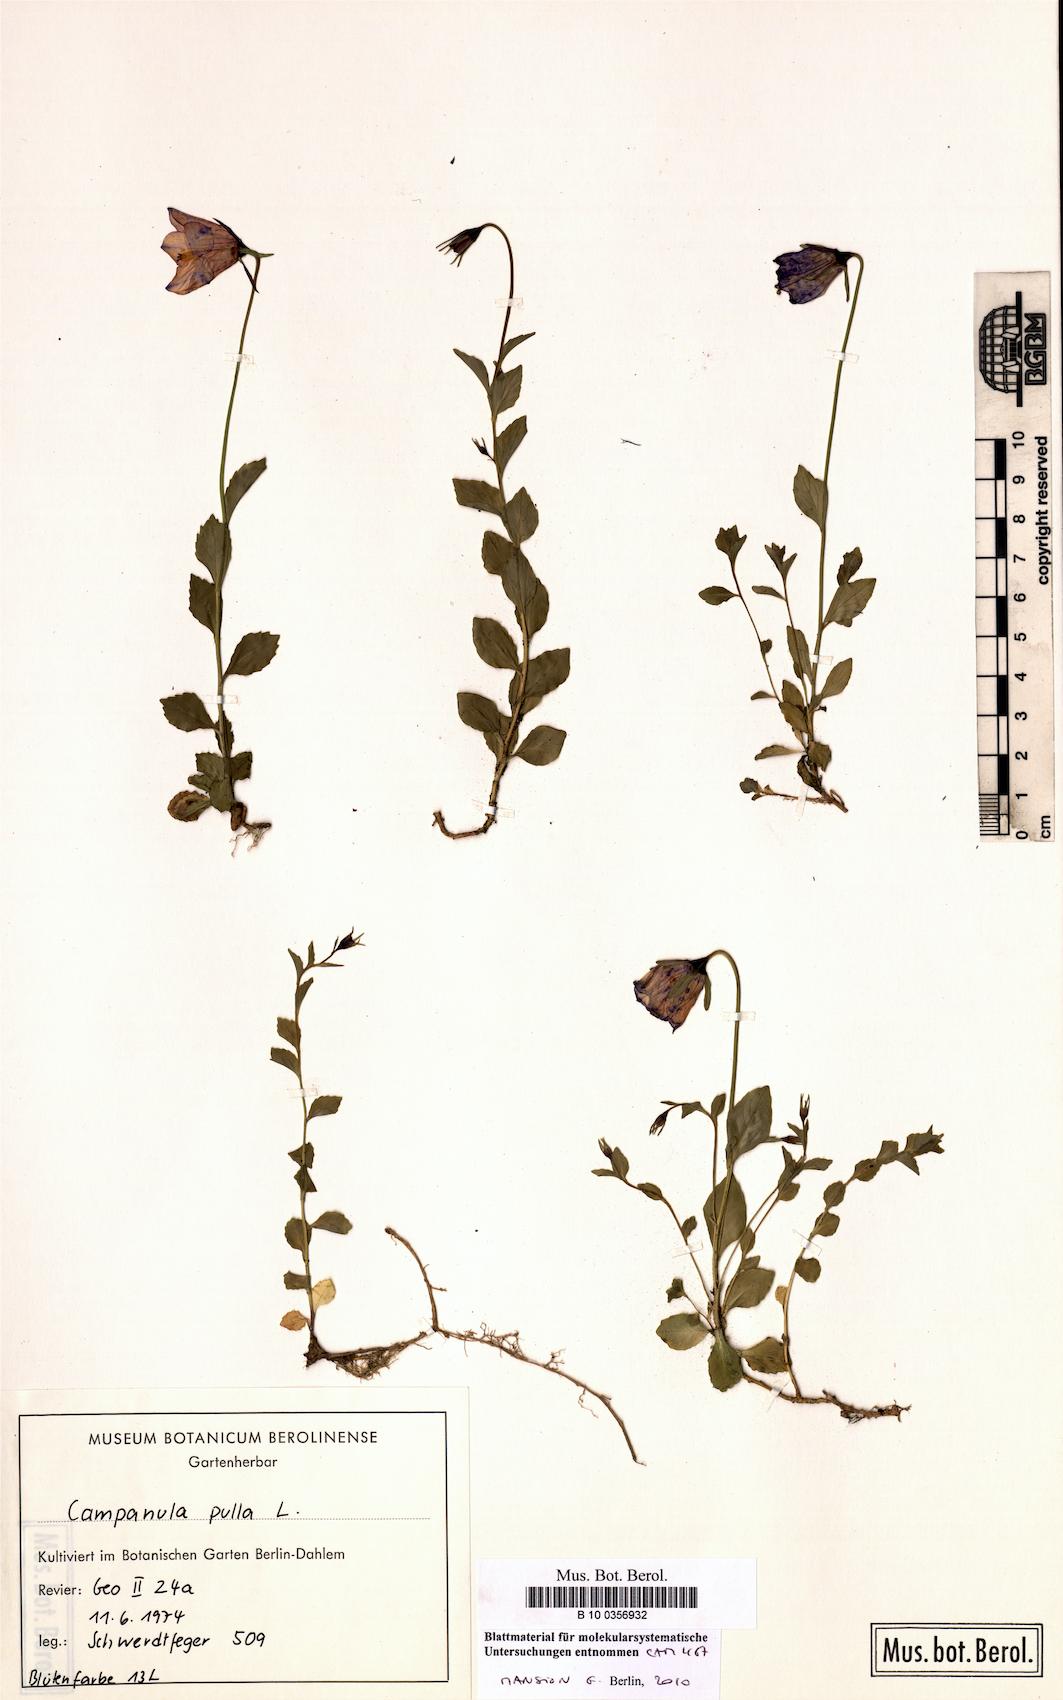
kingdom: Plantae
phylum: Tracheophyta
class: Magnoliopsida
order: Asterales
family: Campanulaceae
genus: Campanula
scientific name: Campanula pulla
